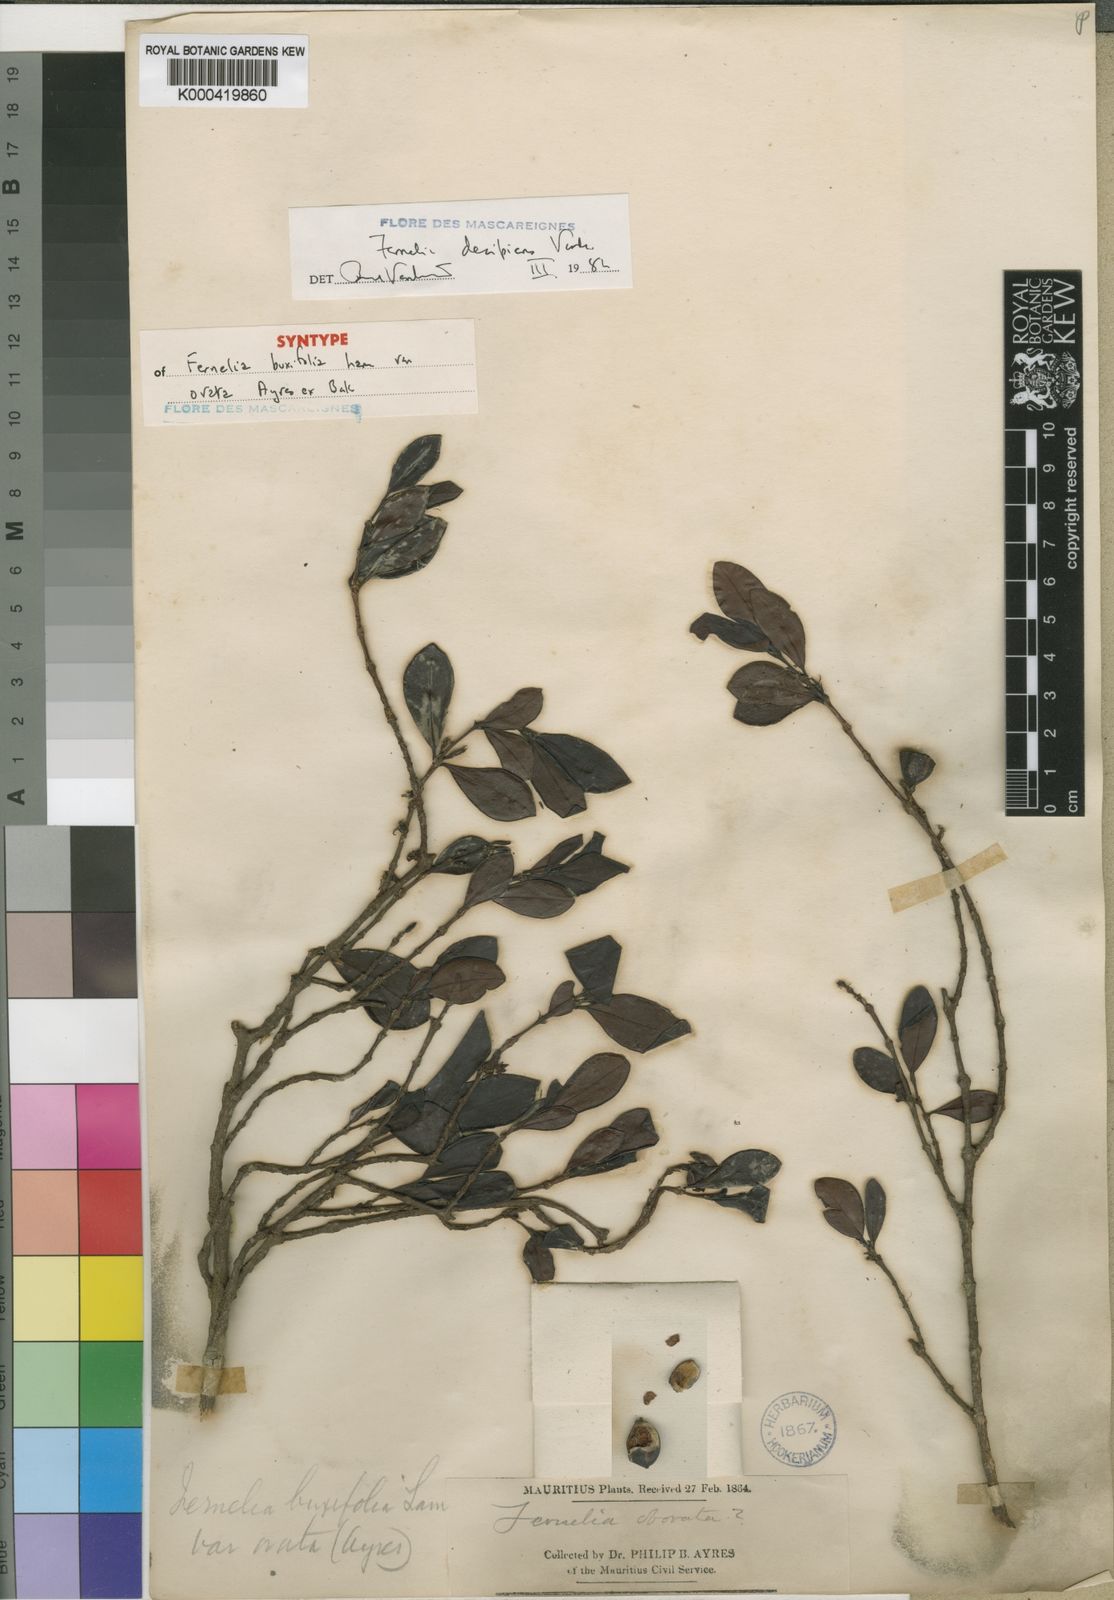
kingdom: Plantae
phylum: Tracheophyta
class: Magnoliopsida
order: Gentianales
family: Rubiaceae
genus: Fernelia
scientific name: Fernelia buxifolia
